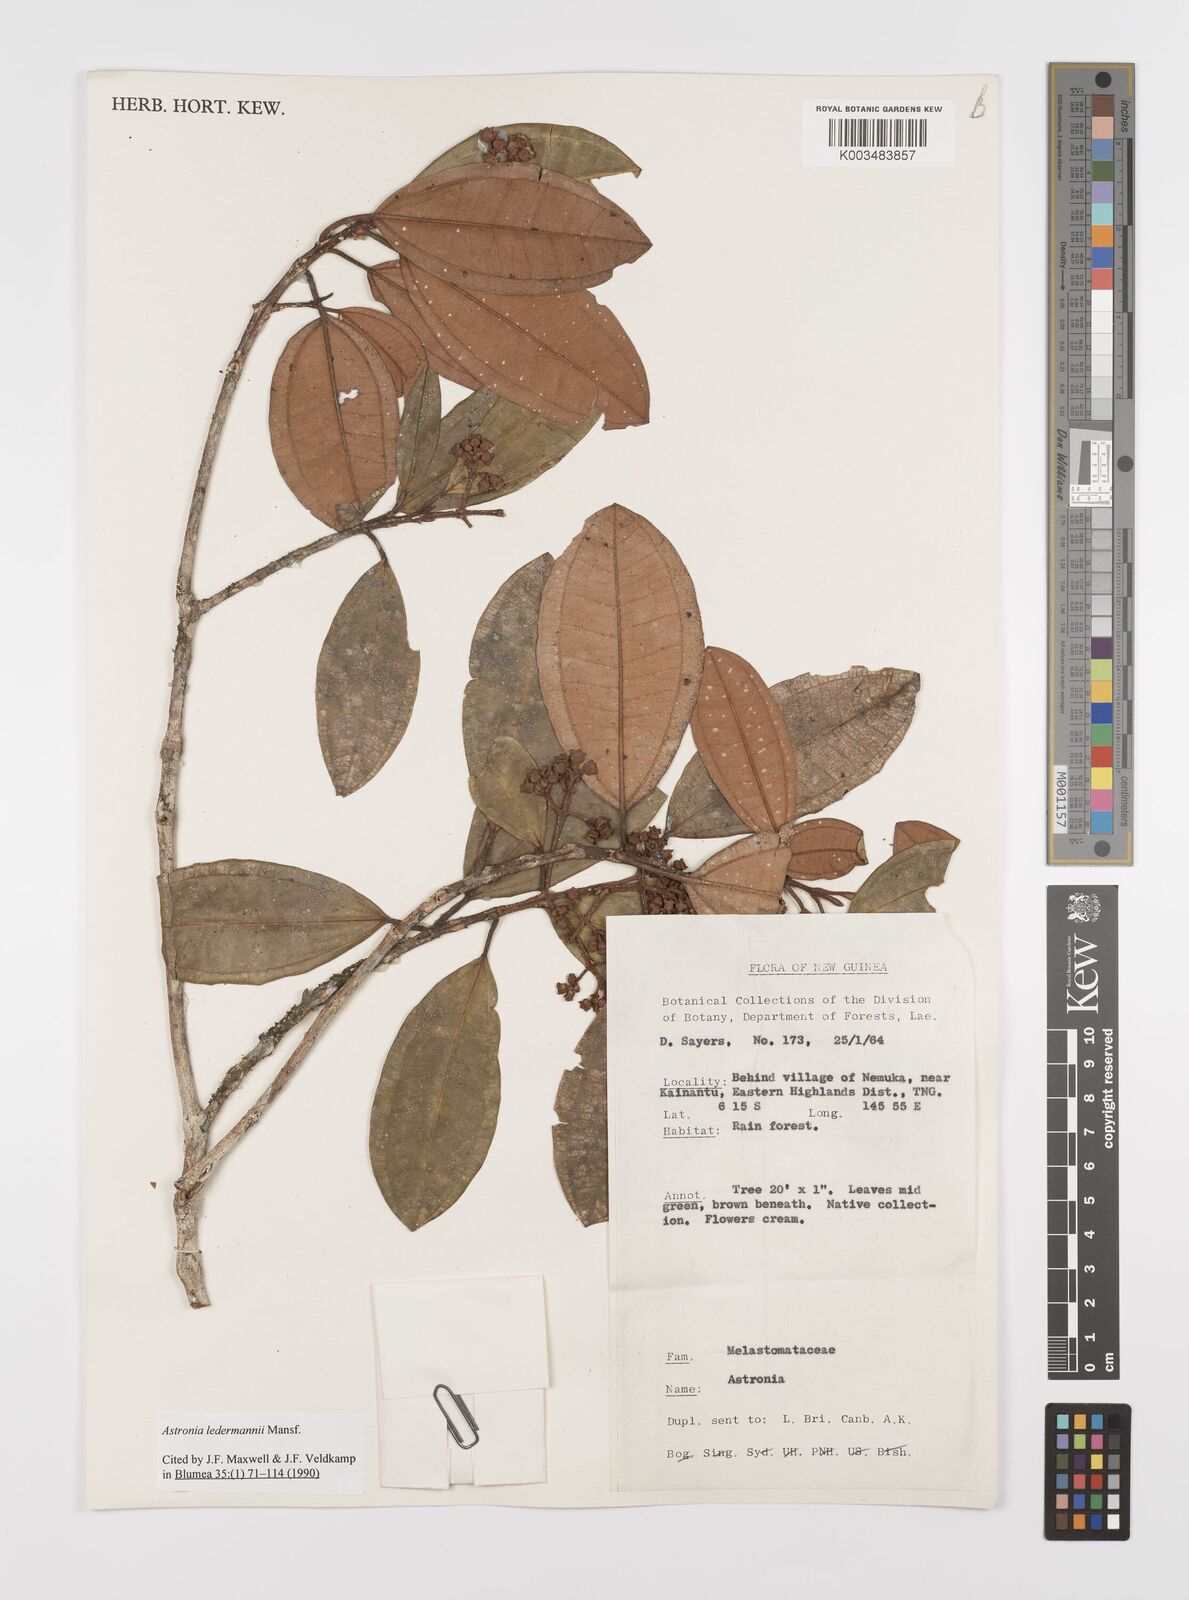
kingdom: Plantae
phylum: Tracheophyta
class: Magnoliopsida
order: Myrtales
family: Melastomataceae
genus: Astronia
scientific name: Astronia ledermannii
